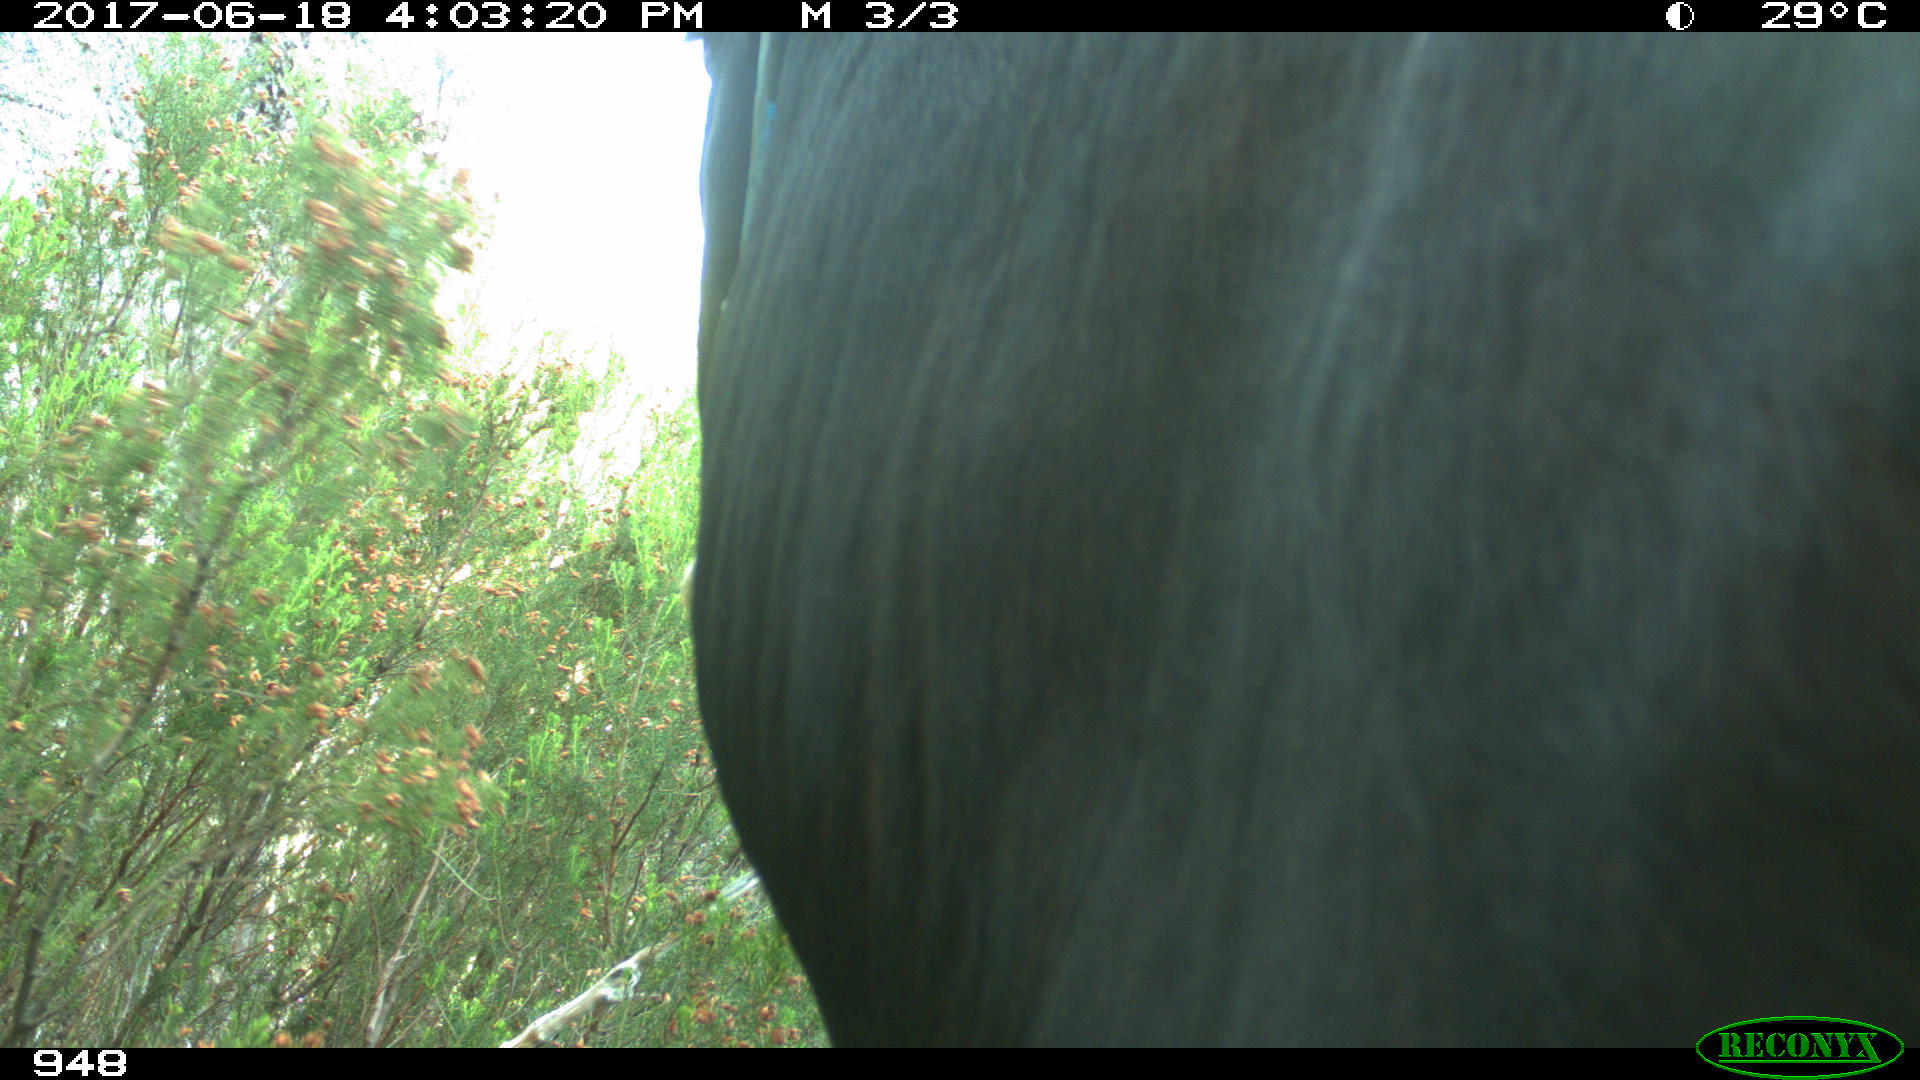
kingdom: Animalia
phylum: Chordata
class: Mammalia
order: Artiodactyla
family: Bovidae
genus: Bos
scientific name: Bos taurus
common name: Domesticated cattle
